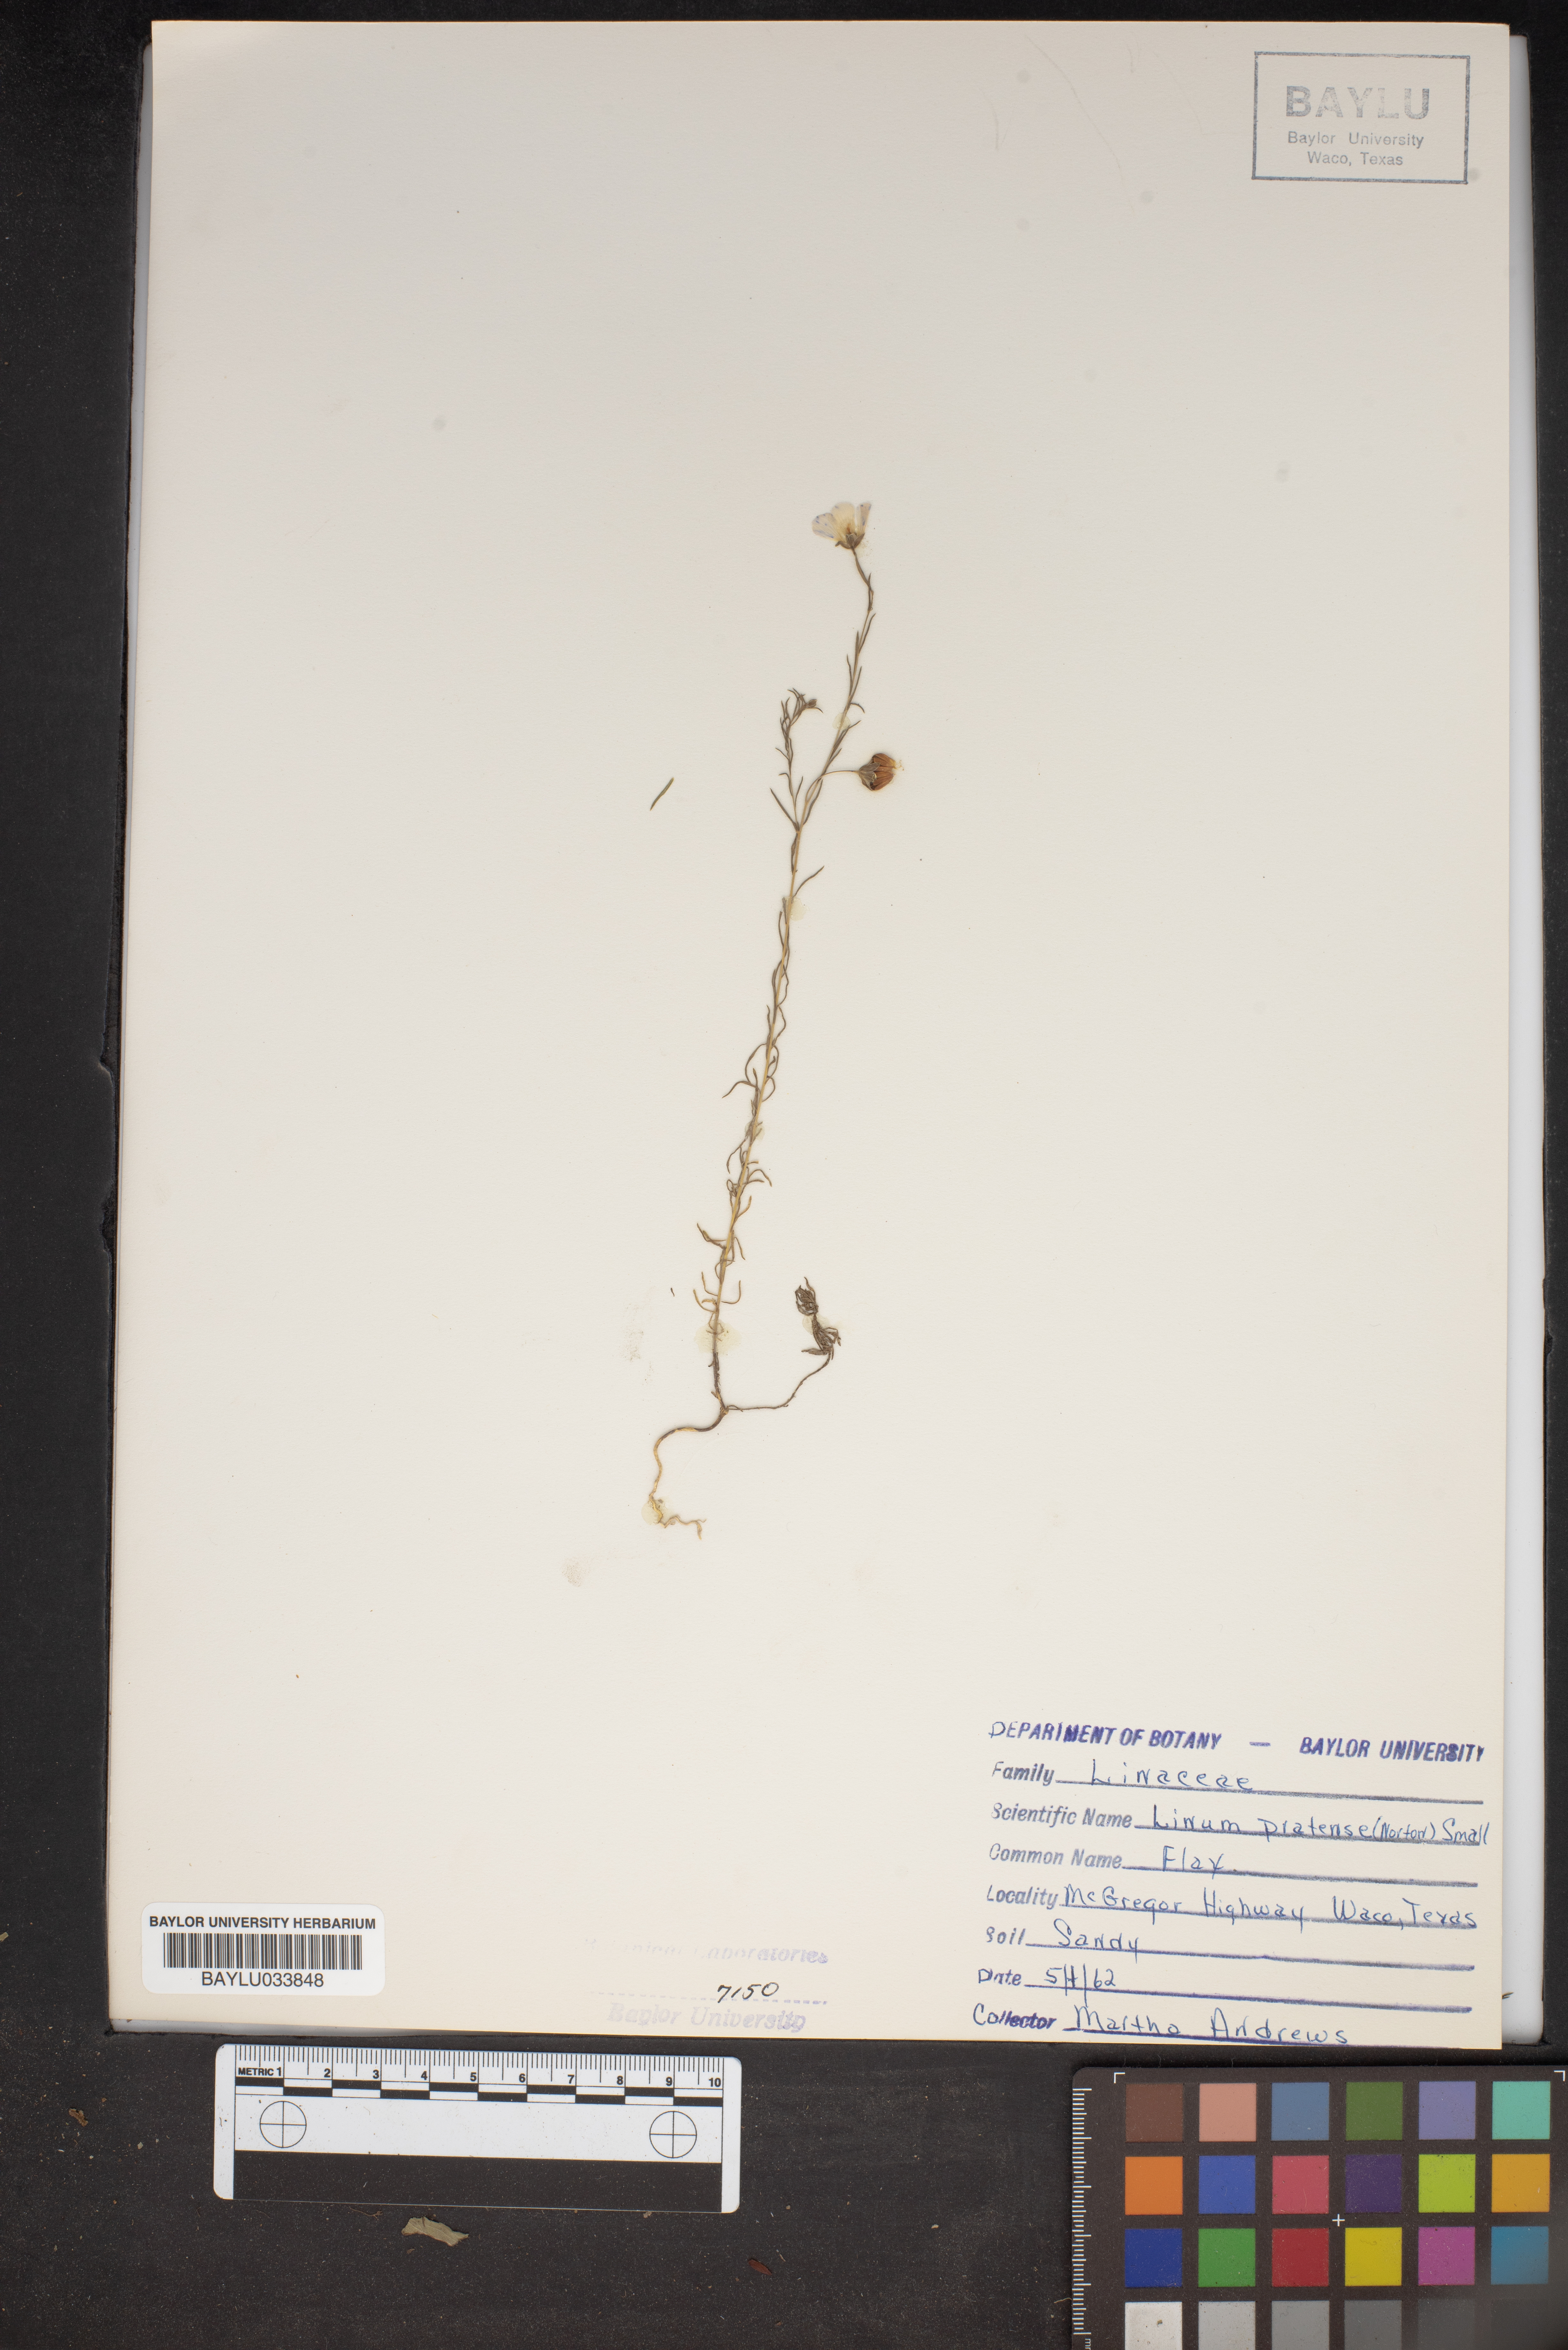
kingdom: Plantae
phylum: Tracheophyta
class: Magnoliopsida
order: Malpighiales
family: Linaceae
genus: Linum
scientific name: Linum pratense
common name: Norton's flax
